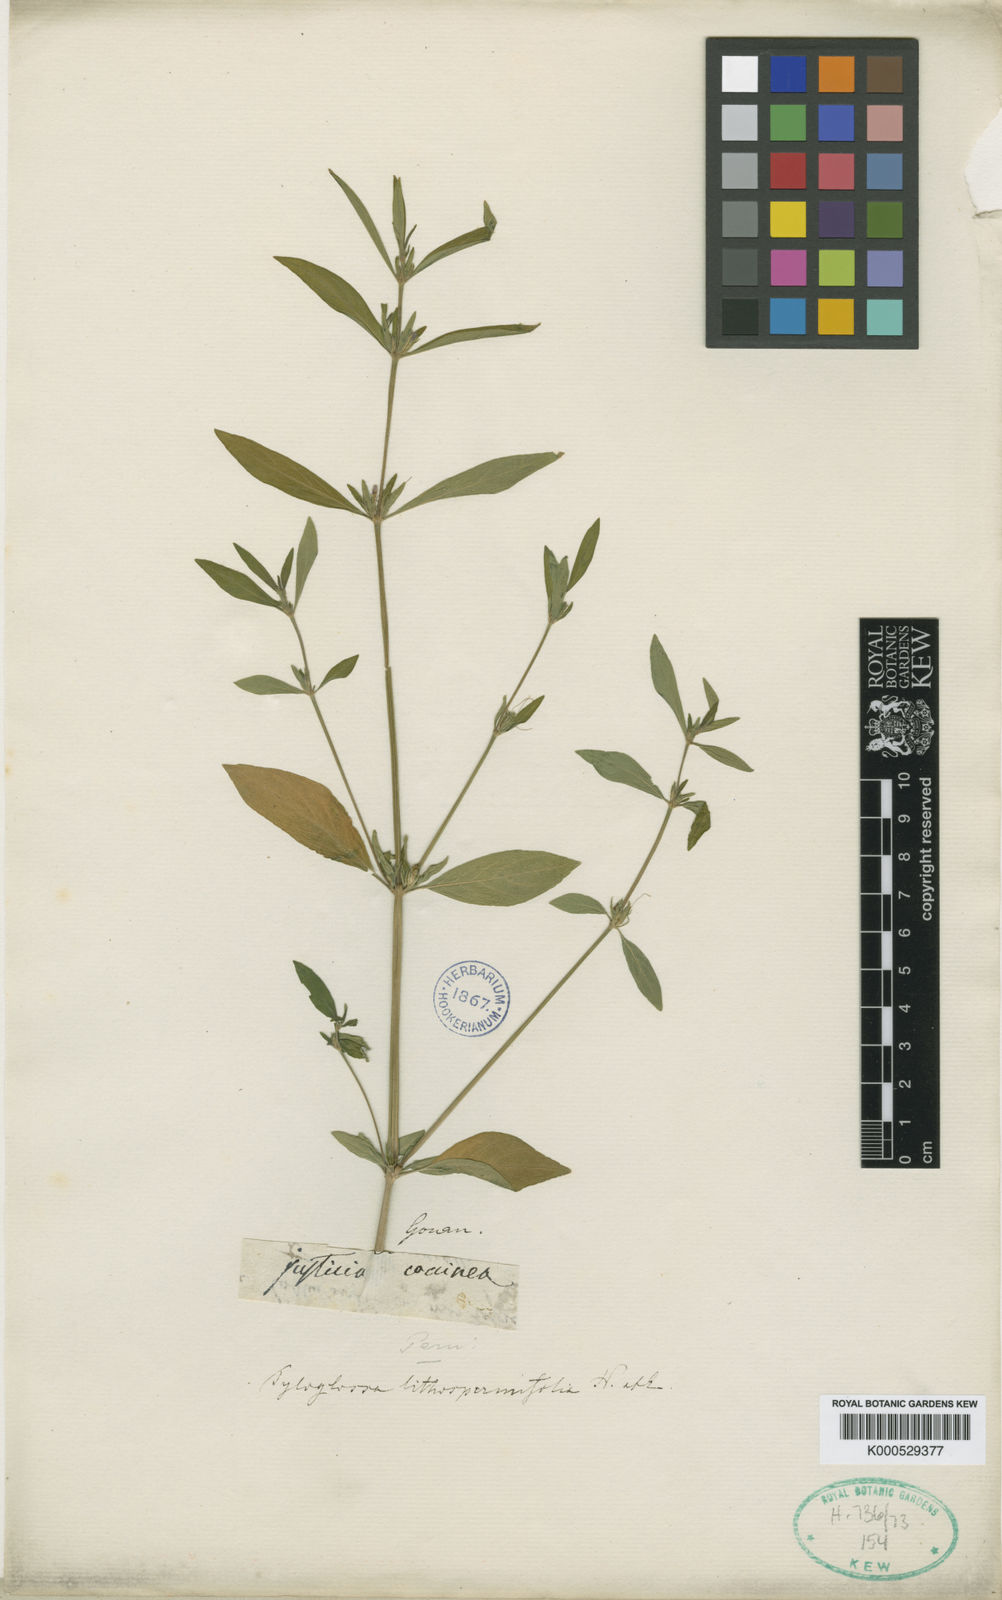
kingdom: Plantae
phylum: Tracheophyta
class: Magnoliopsida
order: Lamiales
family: Acanthaceae
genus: Justicia
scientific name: Justicia ladanoides
